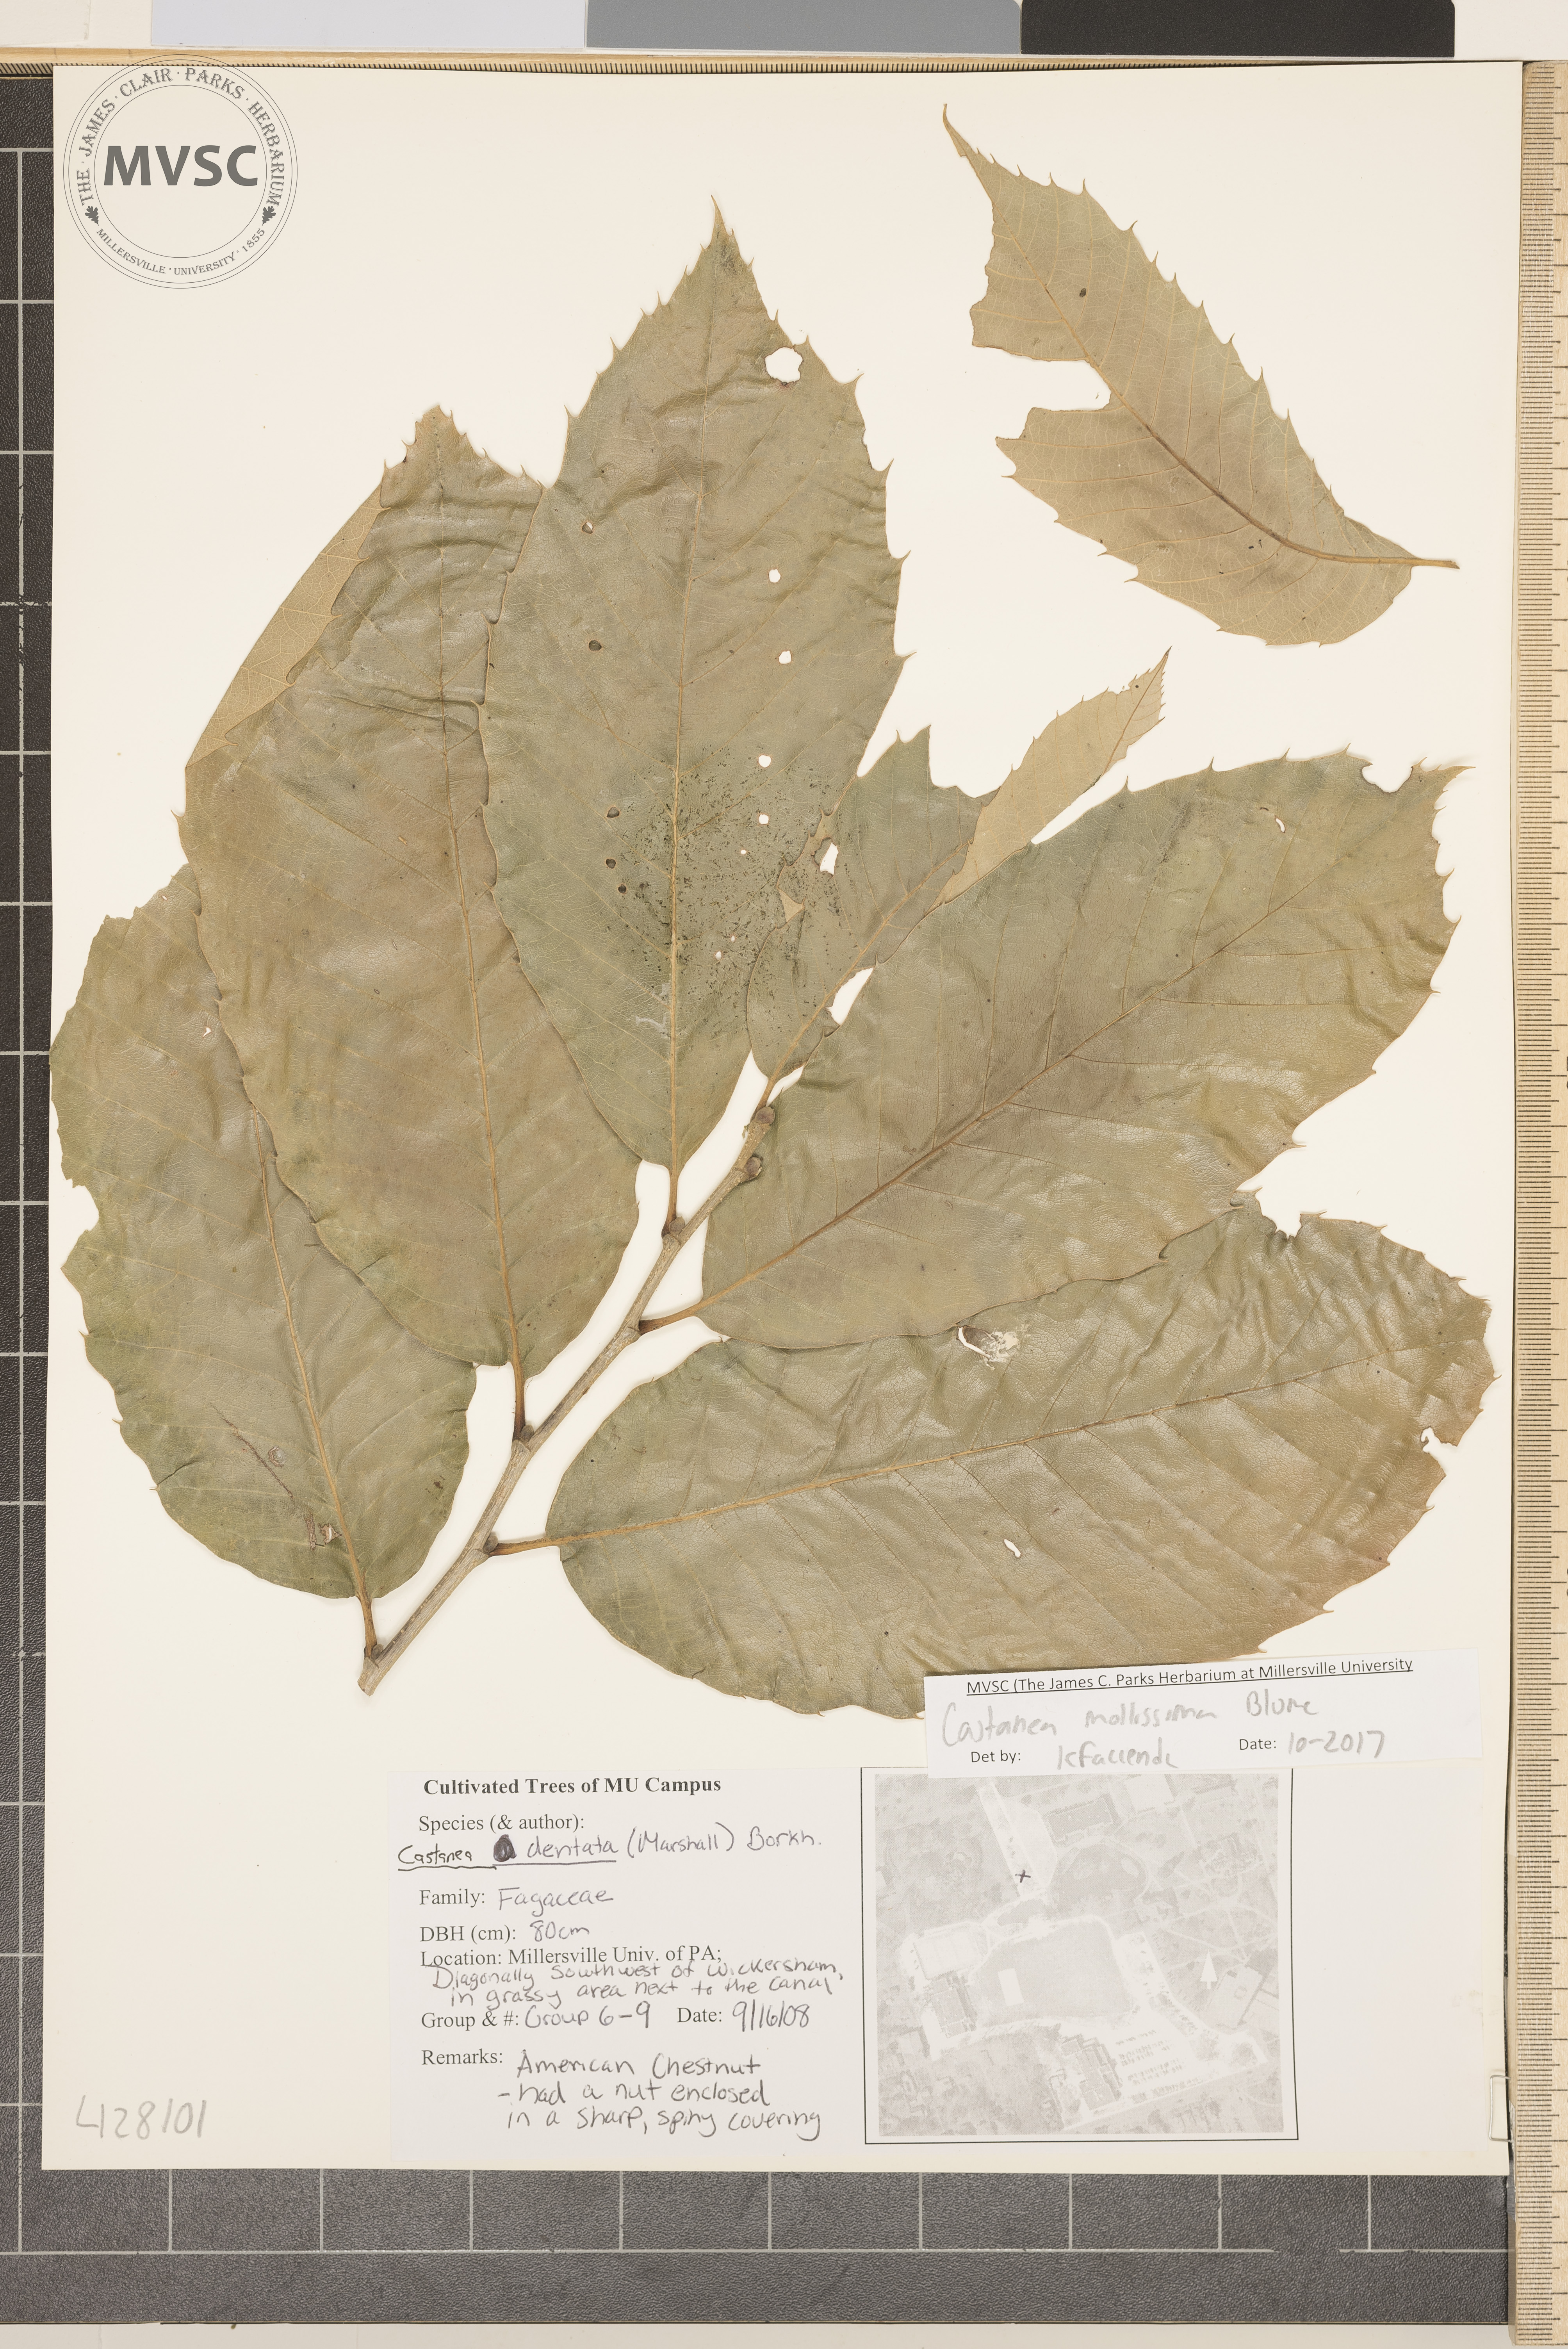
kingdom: Plantae
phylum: Tracheophyta
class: Magnoliopsida
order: Fagales
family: Fagaceae
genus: Castanea
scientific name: Castanea mollissima
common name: Chinese chestnut
